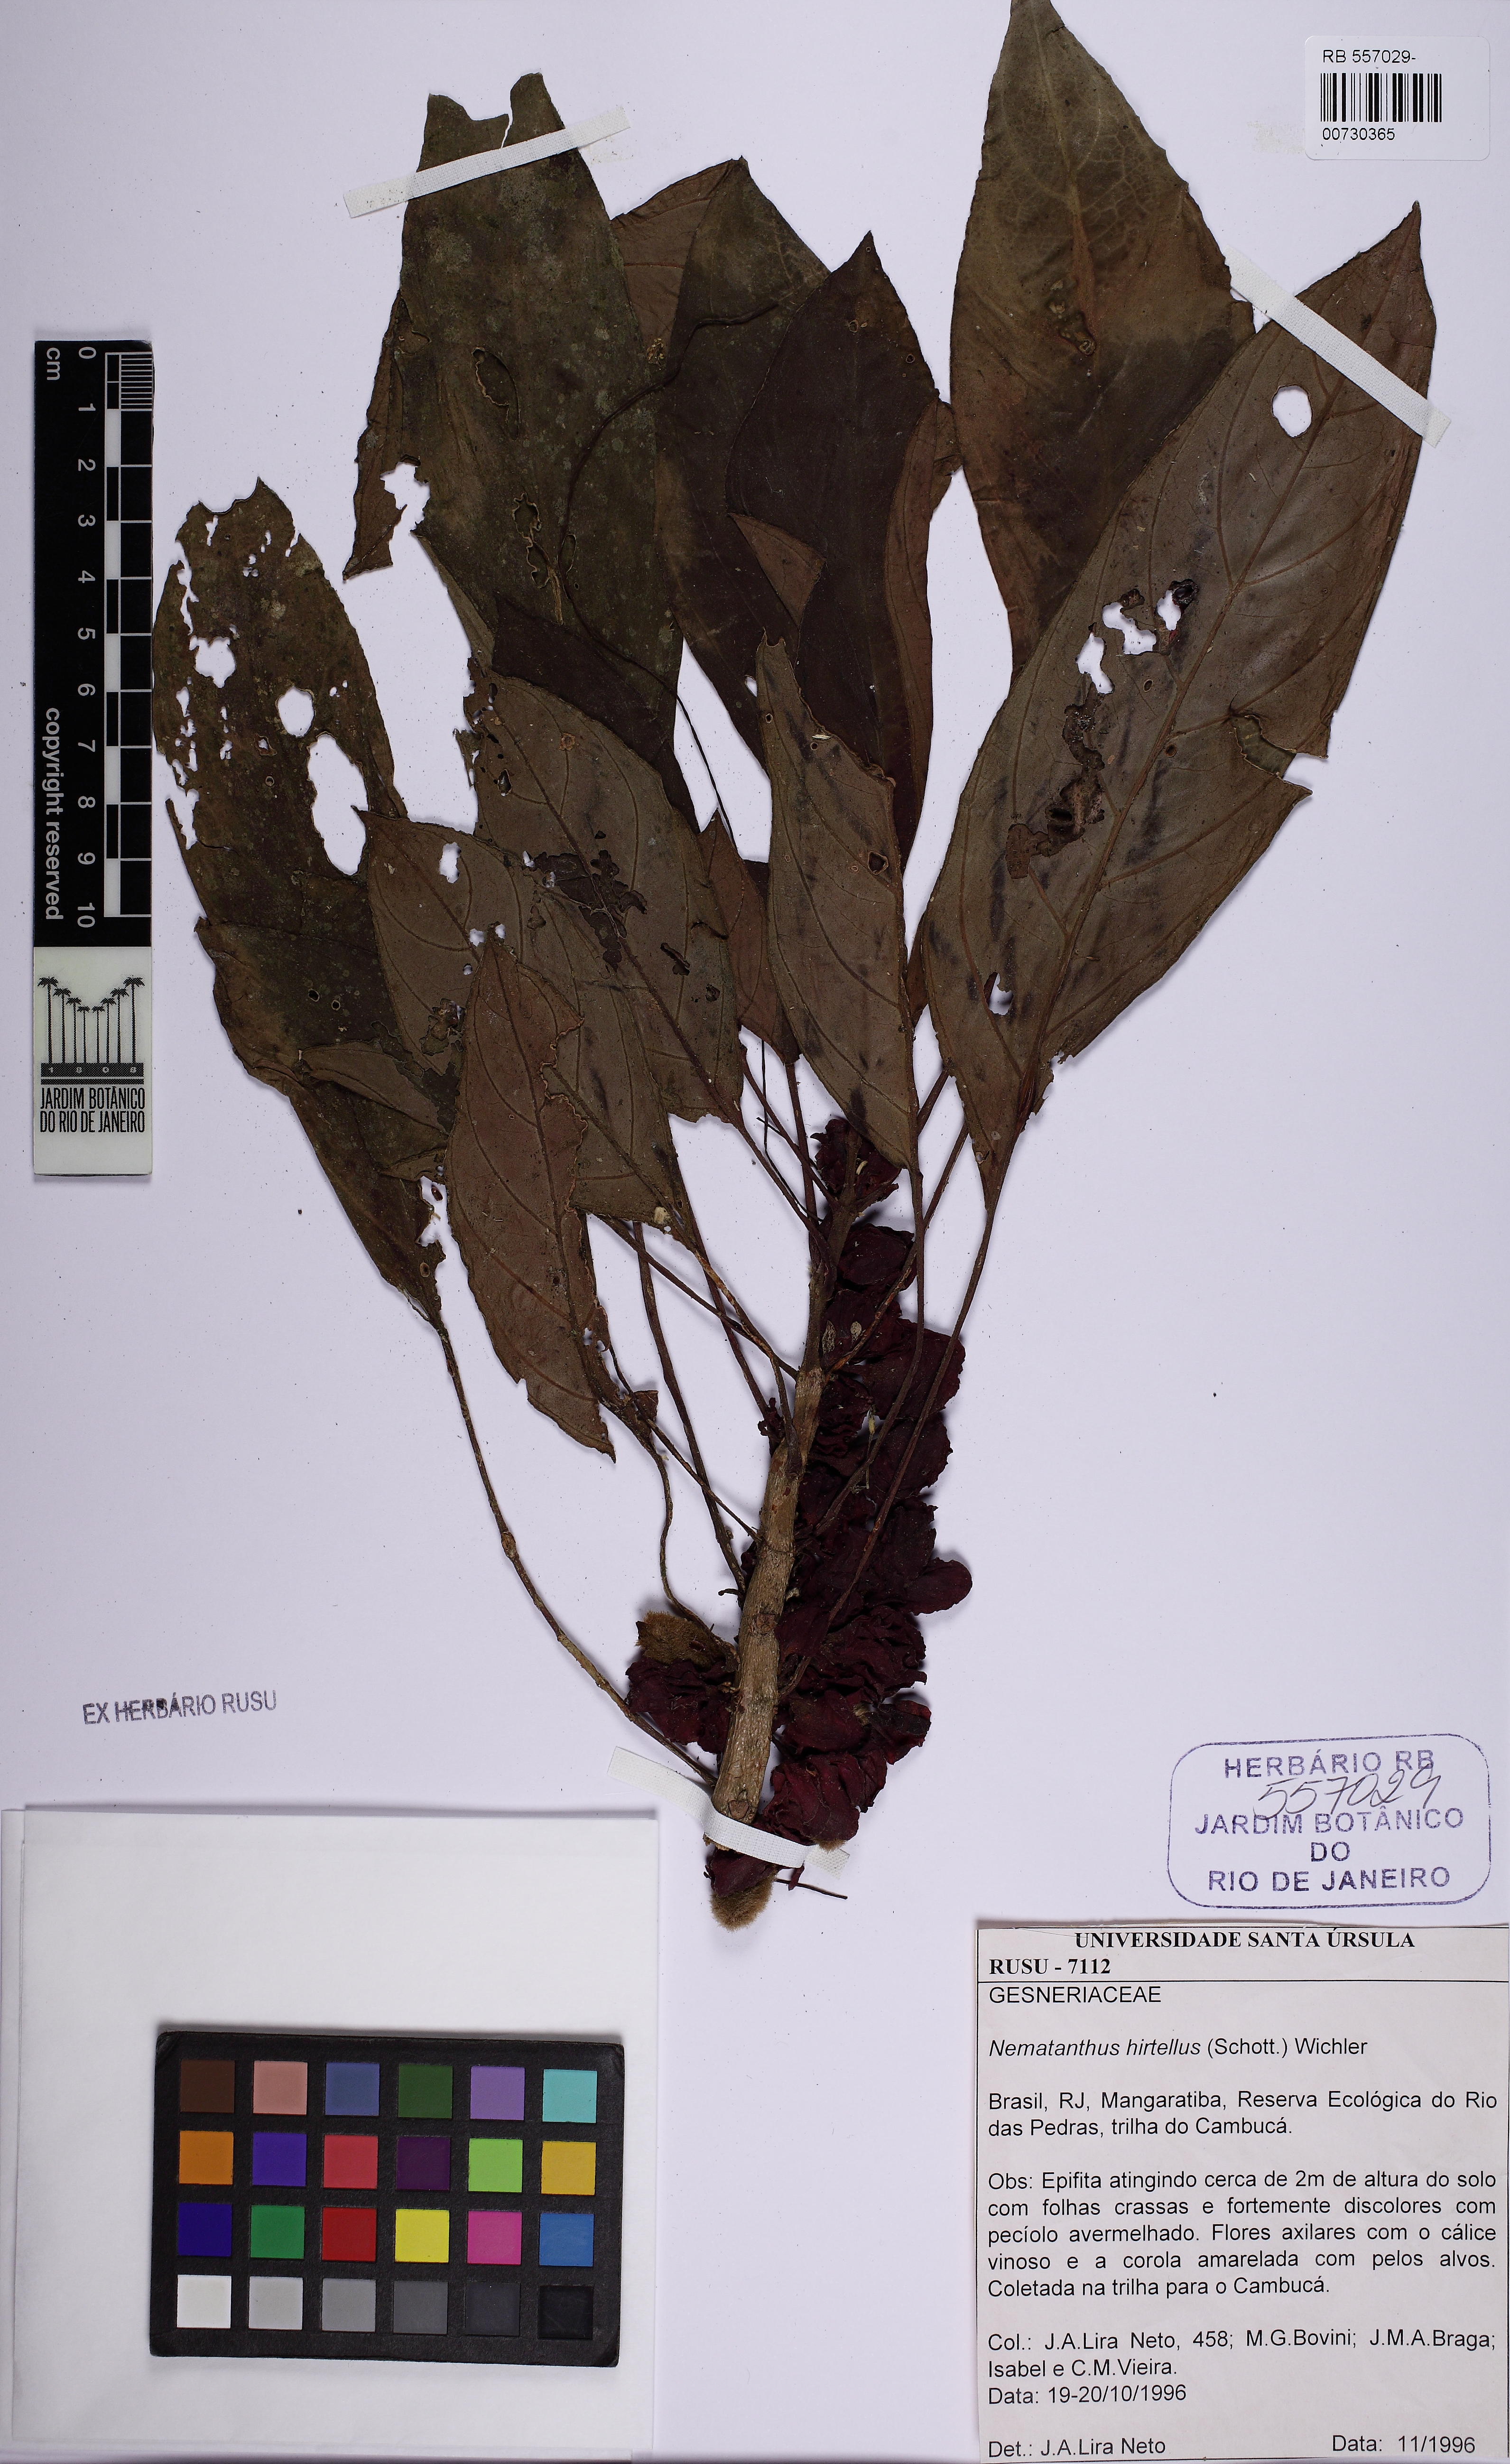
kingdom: Plantae
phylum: Tracheophyta
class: Magnoliopsida
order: Lamiales
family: Gesneriaceae
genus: Nematanthus
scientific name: Nematanthus hirtellus
